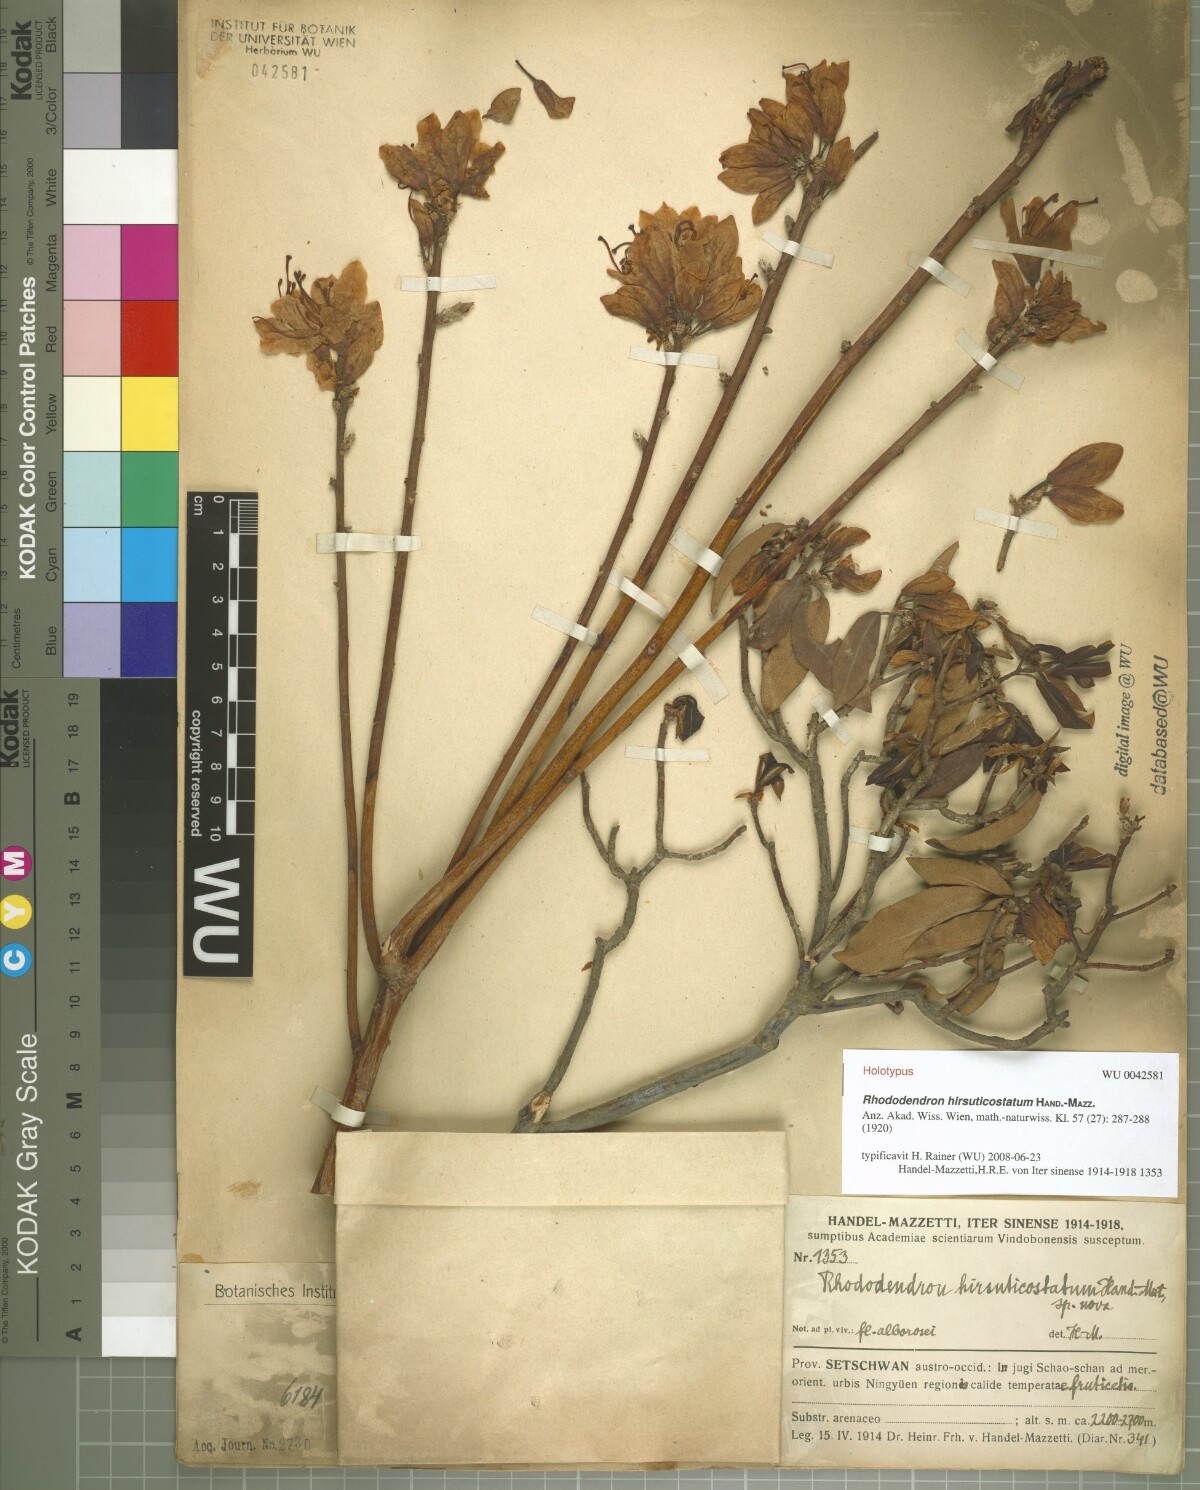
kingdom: Plantae
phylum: Tracheophyta
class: Magnoliopsida
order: Ericales
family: Ericaceae
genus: Rhododendron
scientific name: Rhododendron augustinii
